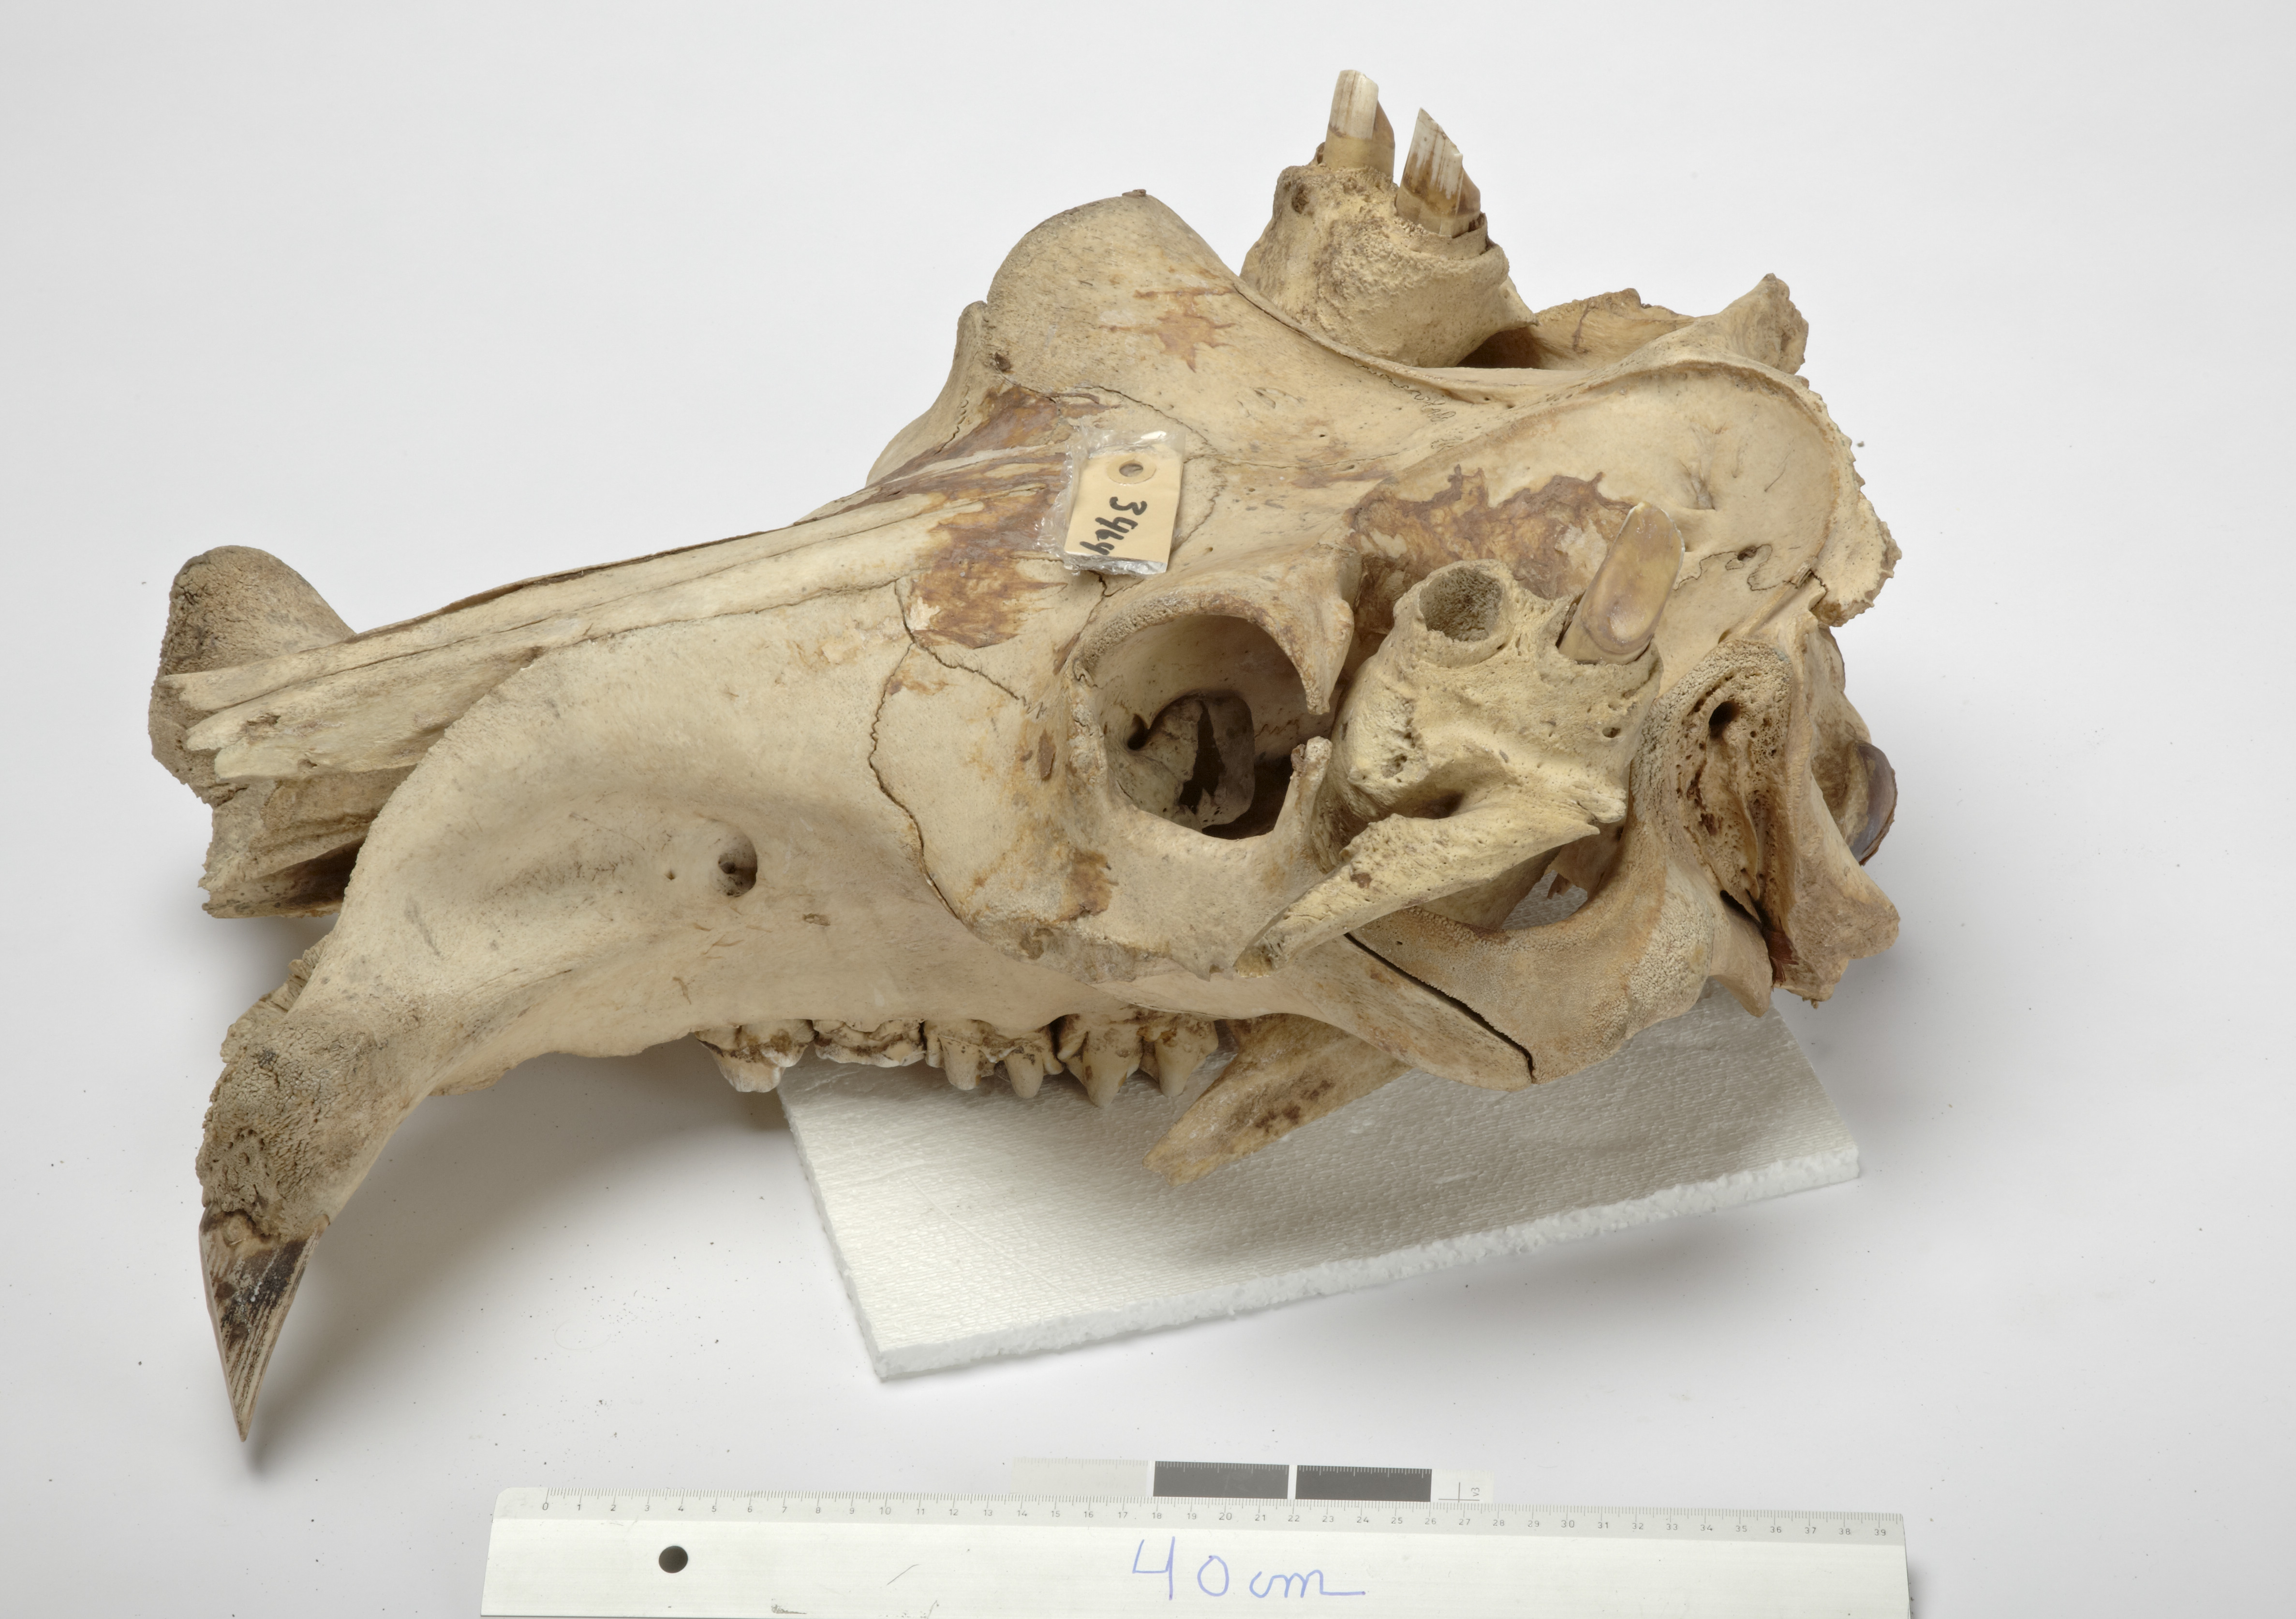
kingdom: Animalia
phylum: Chordata
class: Mammalia
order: Artiodactyla
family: Hippopotamidae
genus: Hippopotamus
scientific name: Hippopotamus amphibius
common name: Common hippopotamus
